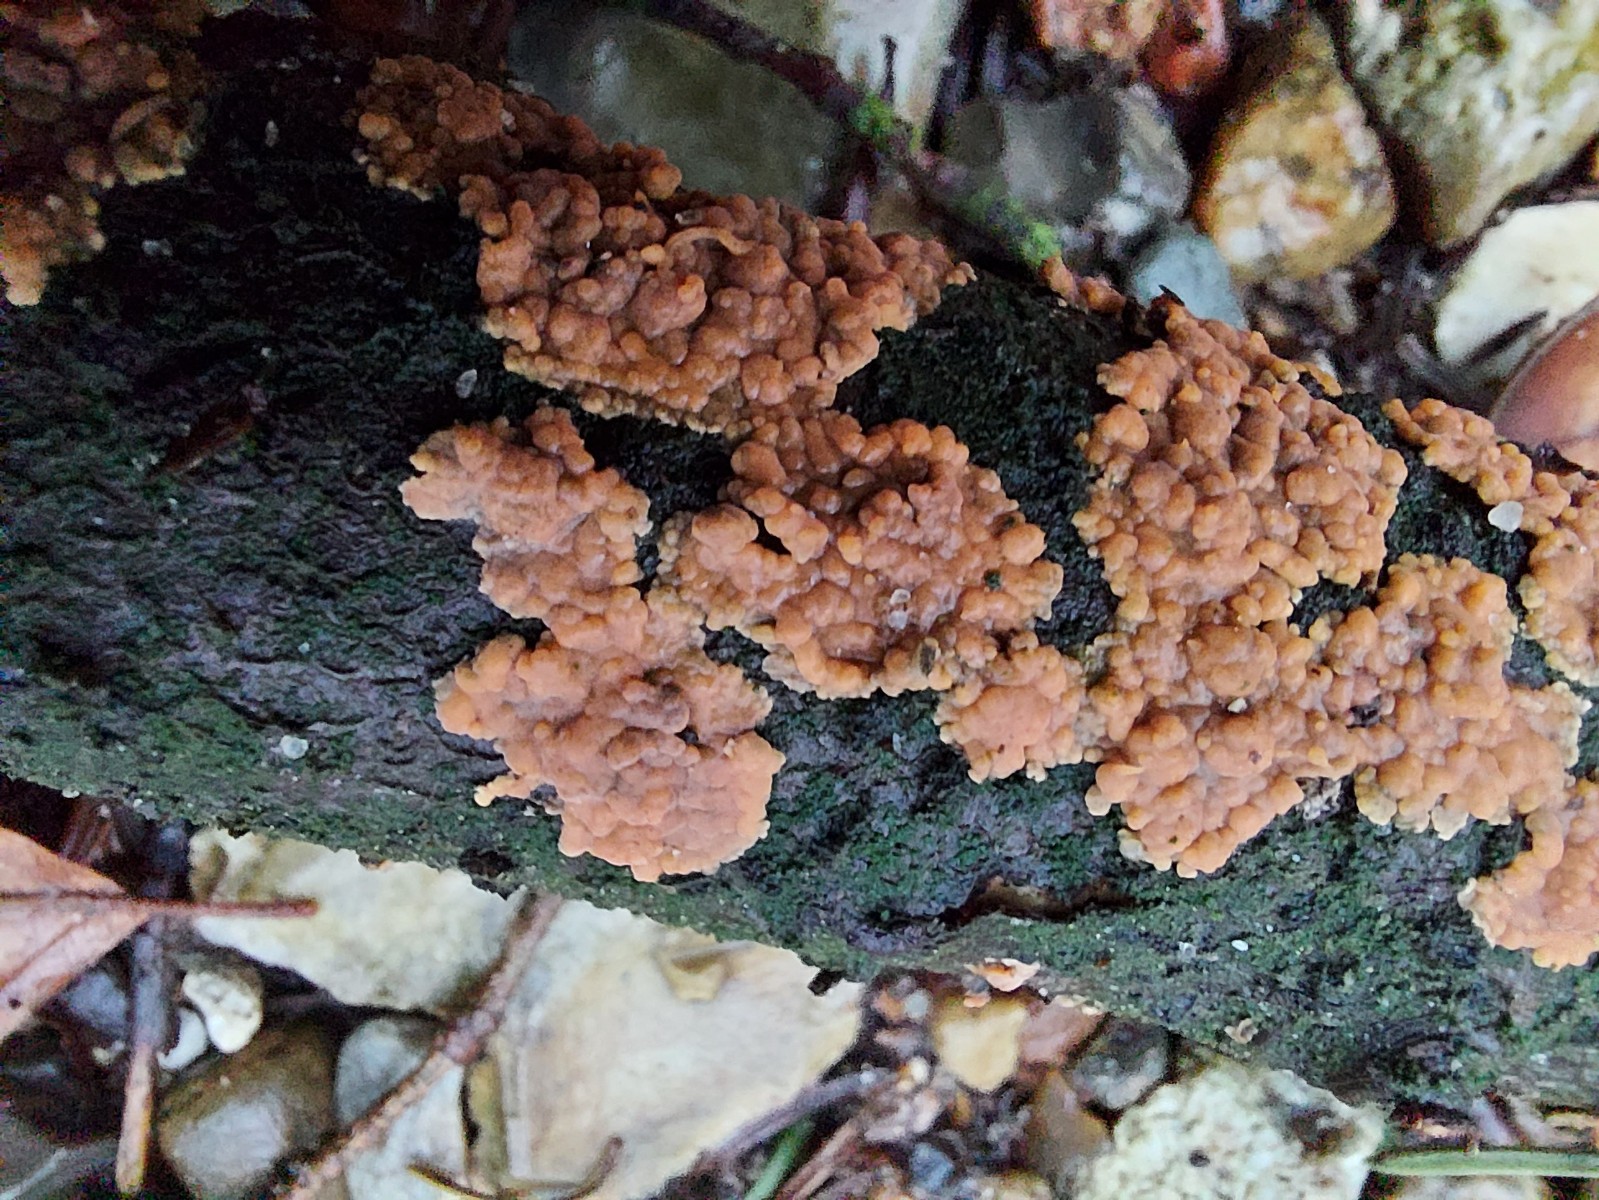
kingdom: Fungi
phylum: Basidiomycota
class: Agaricomycetes
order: Corticiales
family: Corticiaceae
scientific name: Corticiaceae
